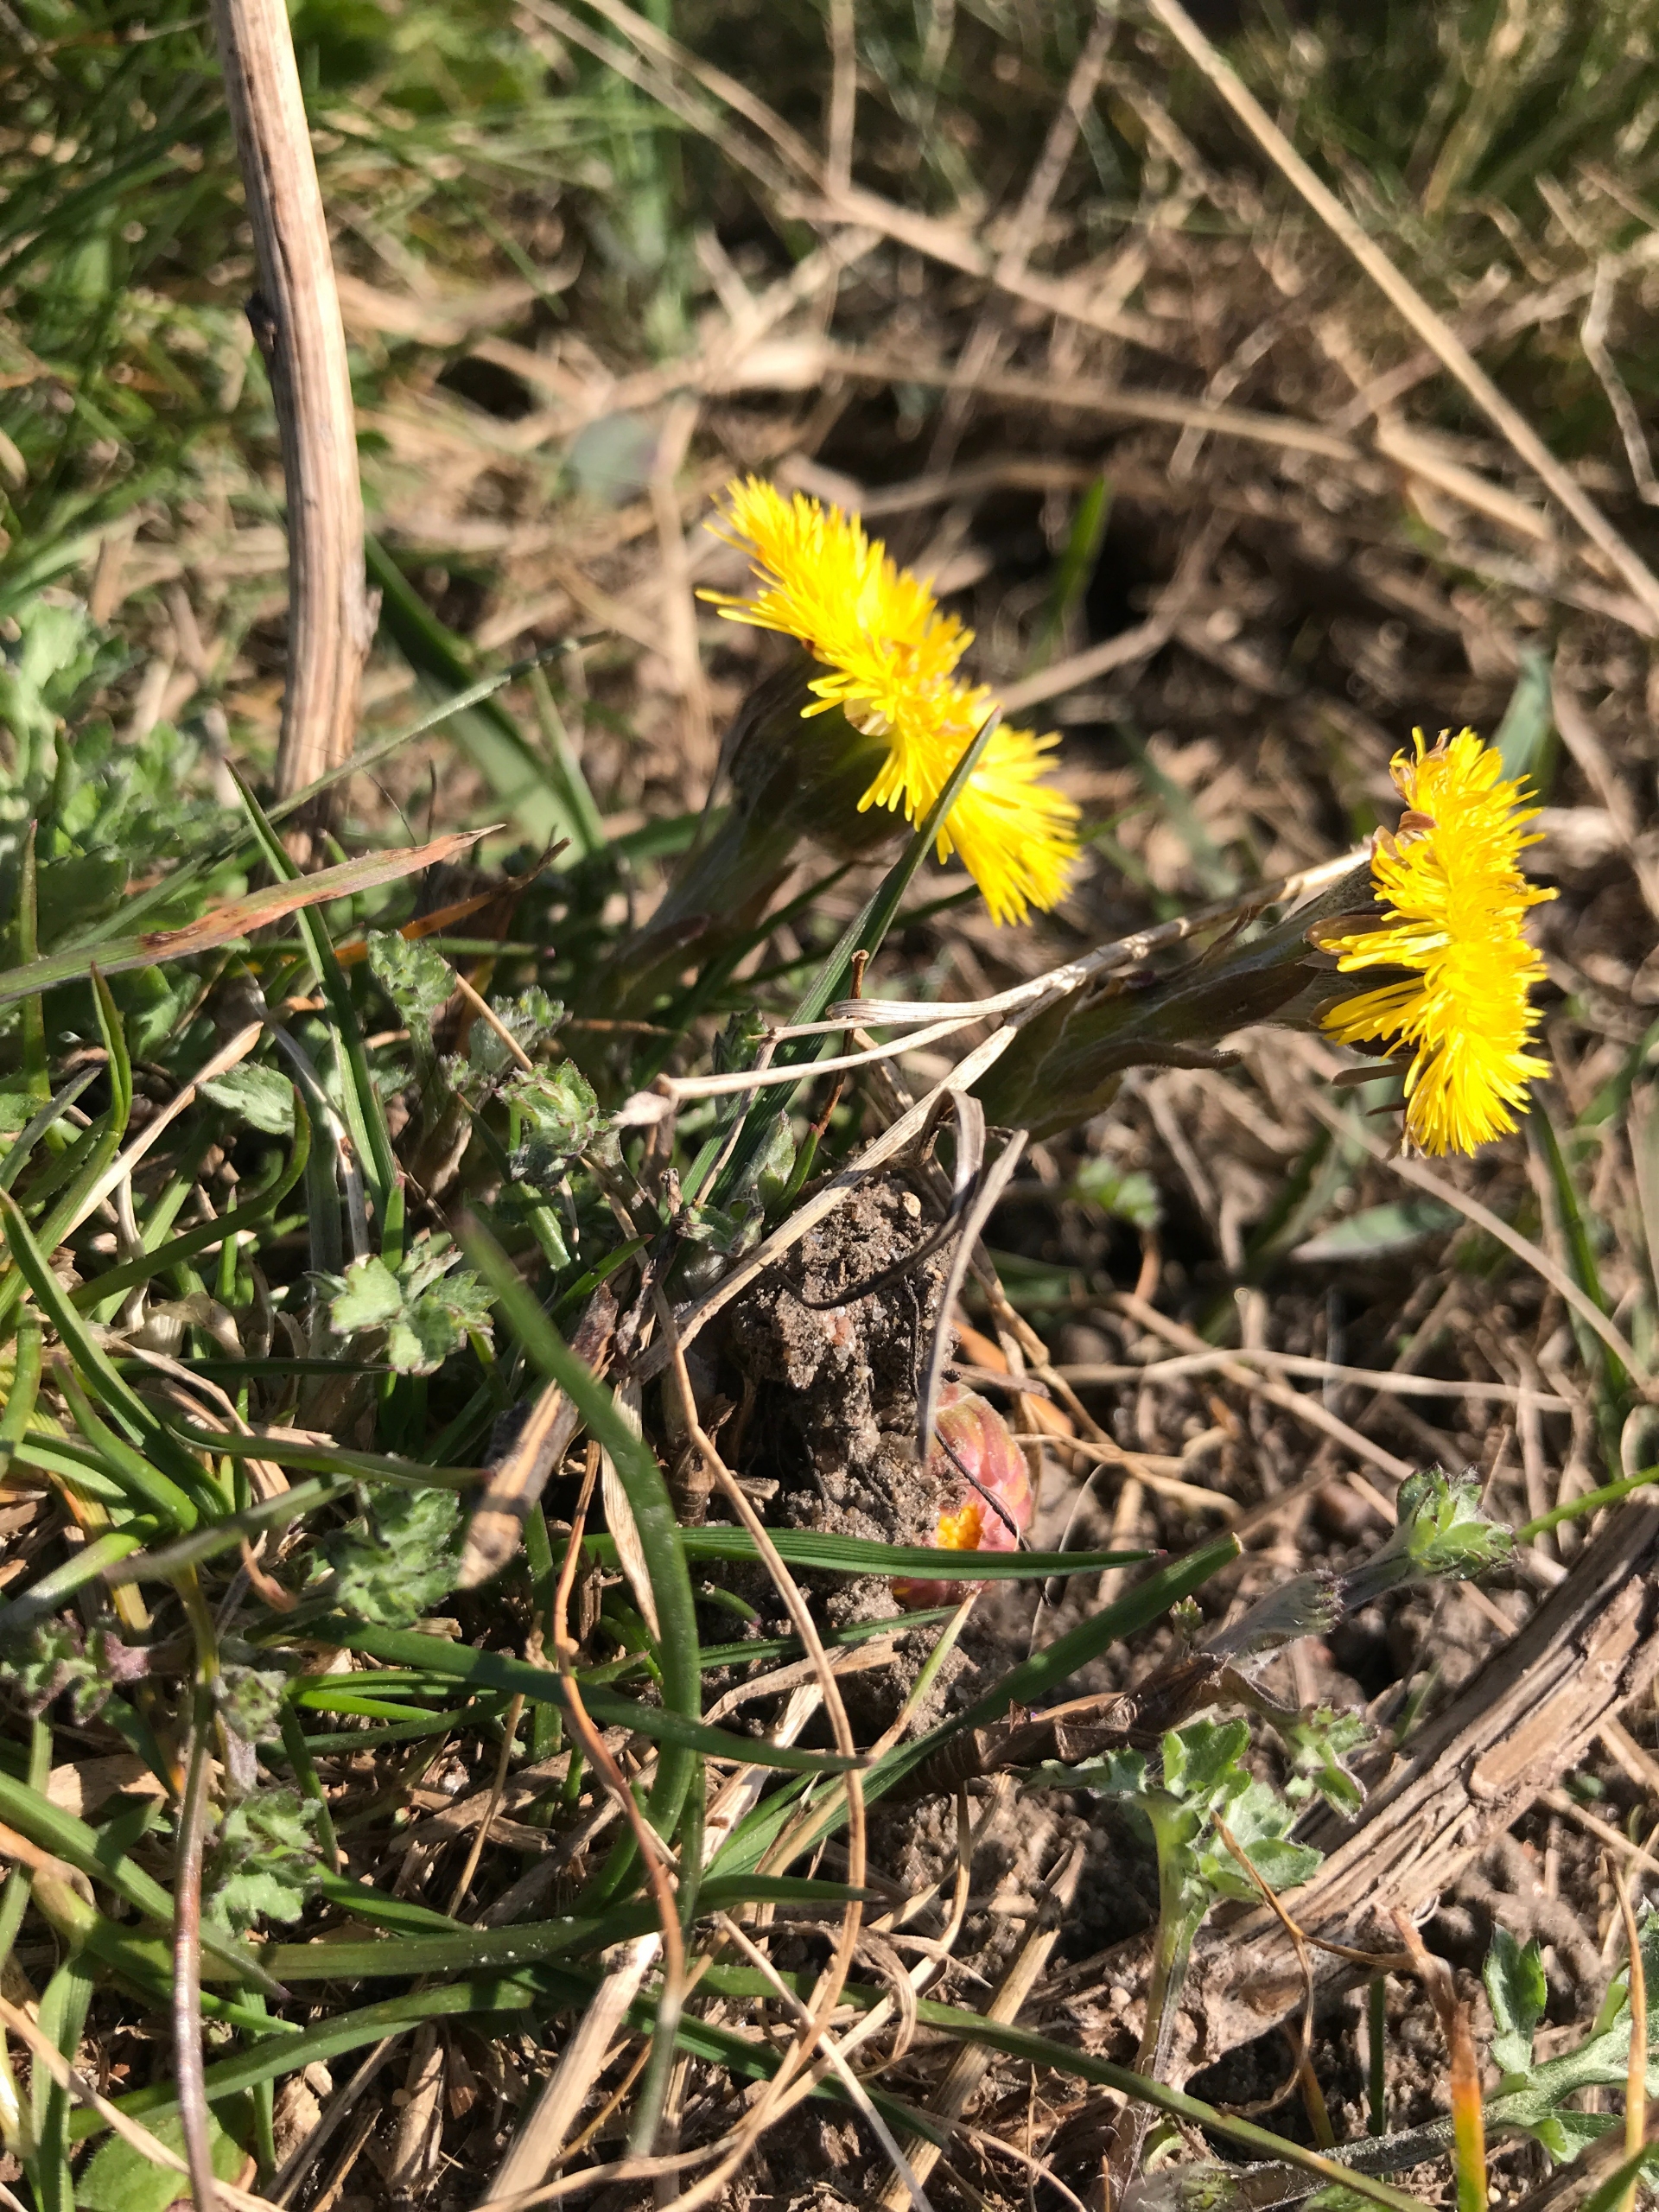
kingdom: Plantae
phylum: Tracheophyta
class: Magnoliopsida
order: Asterales
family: Asteraceae
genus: Tussilago
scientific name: Tussilago farfara
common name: Følfod
